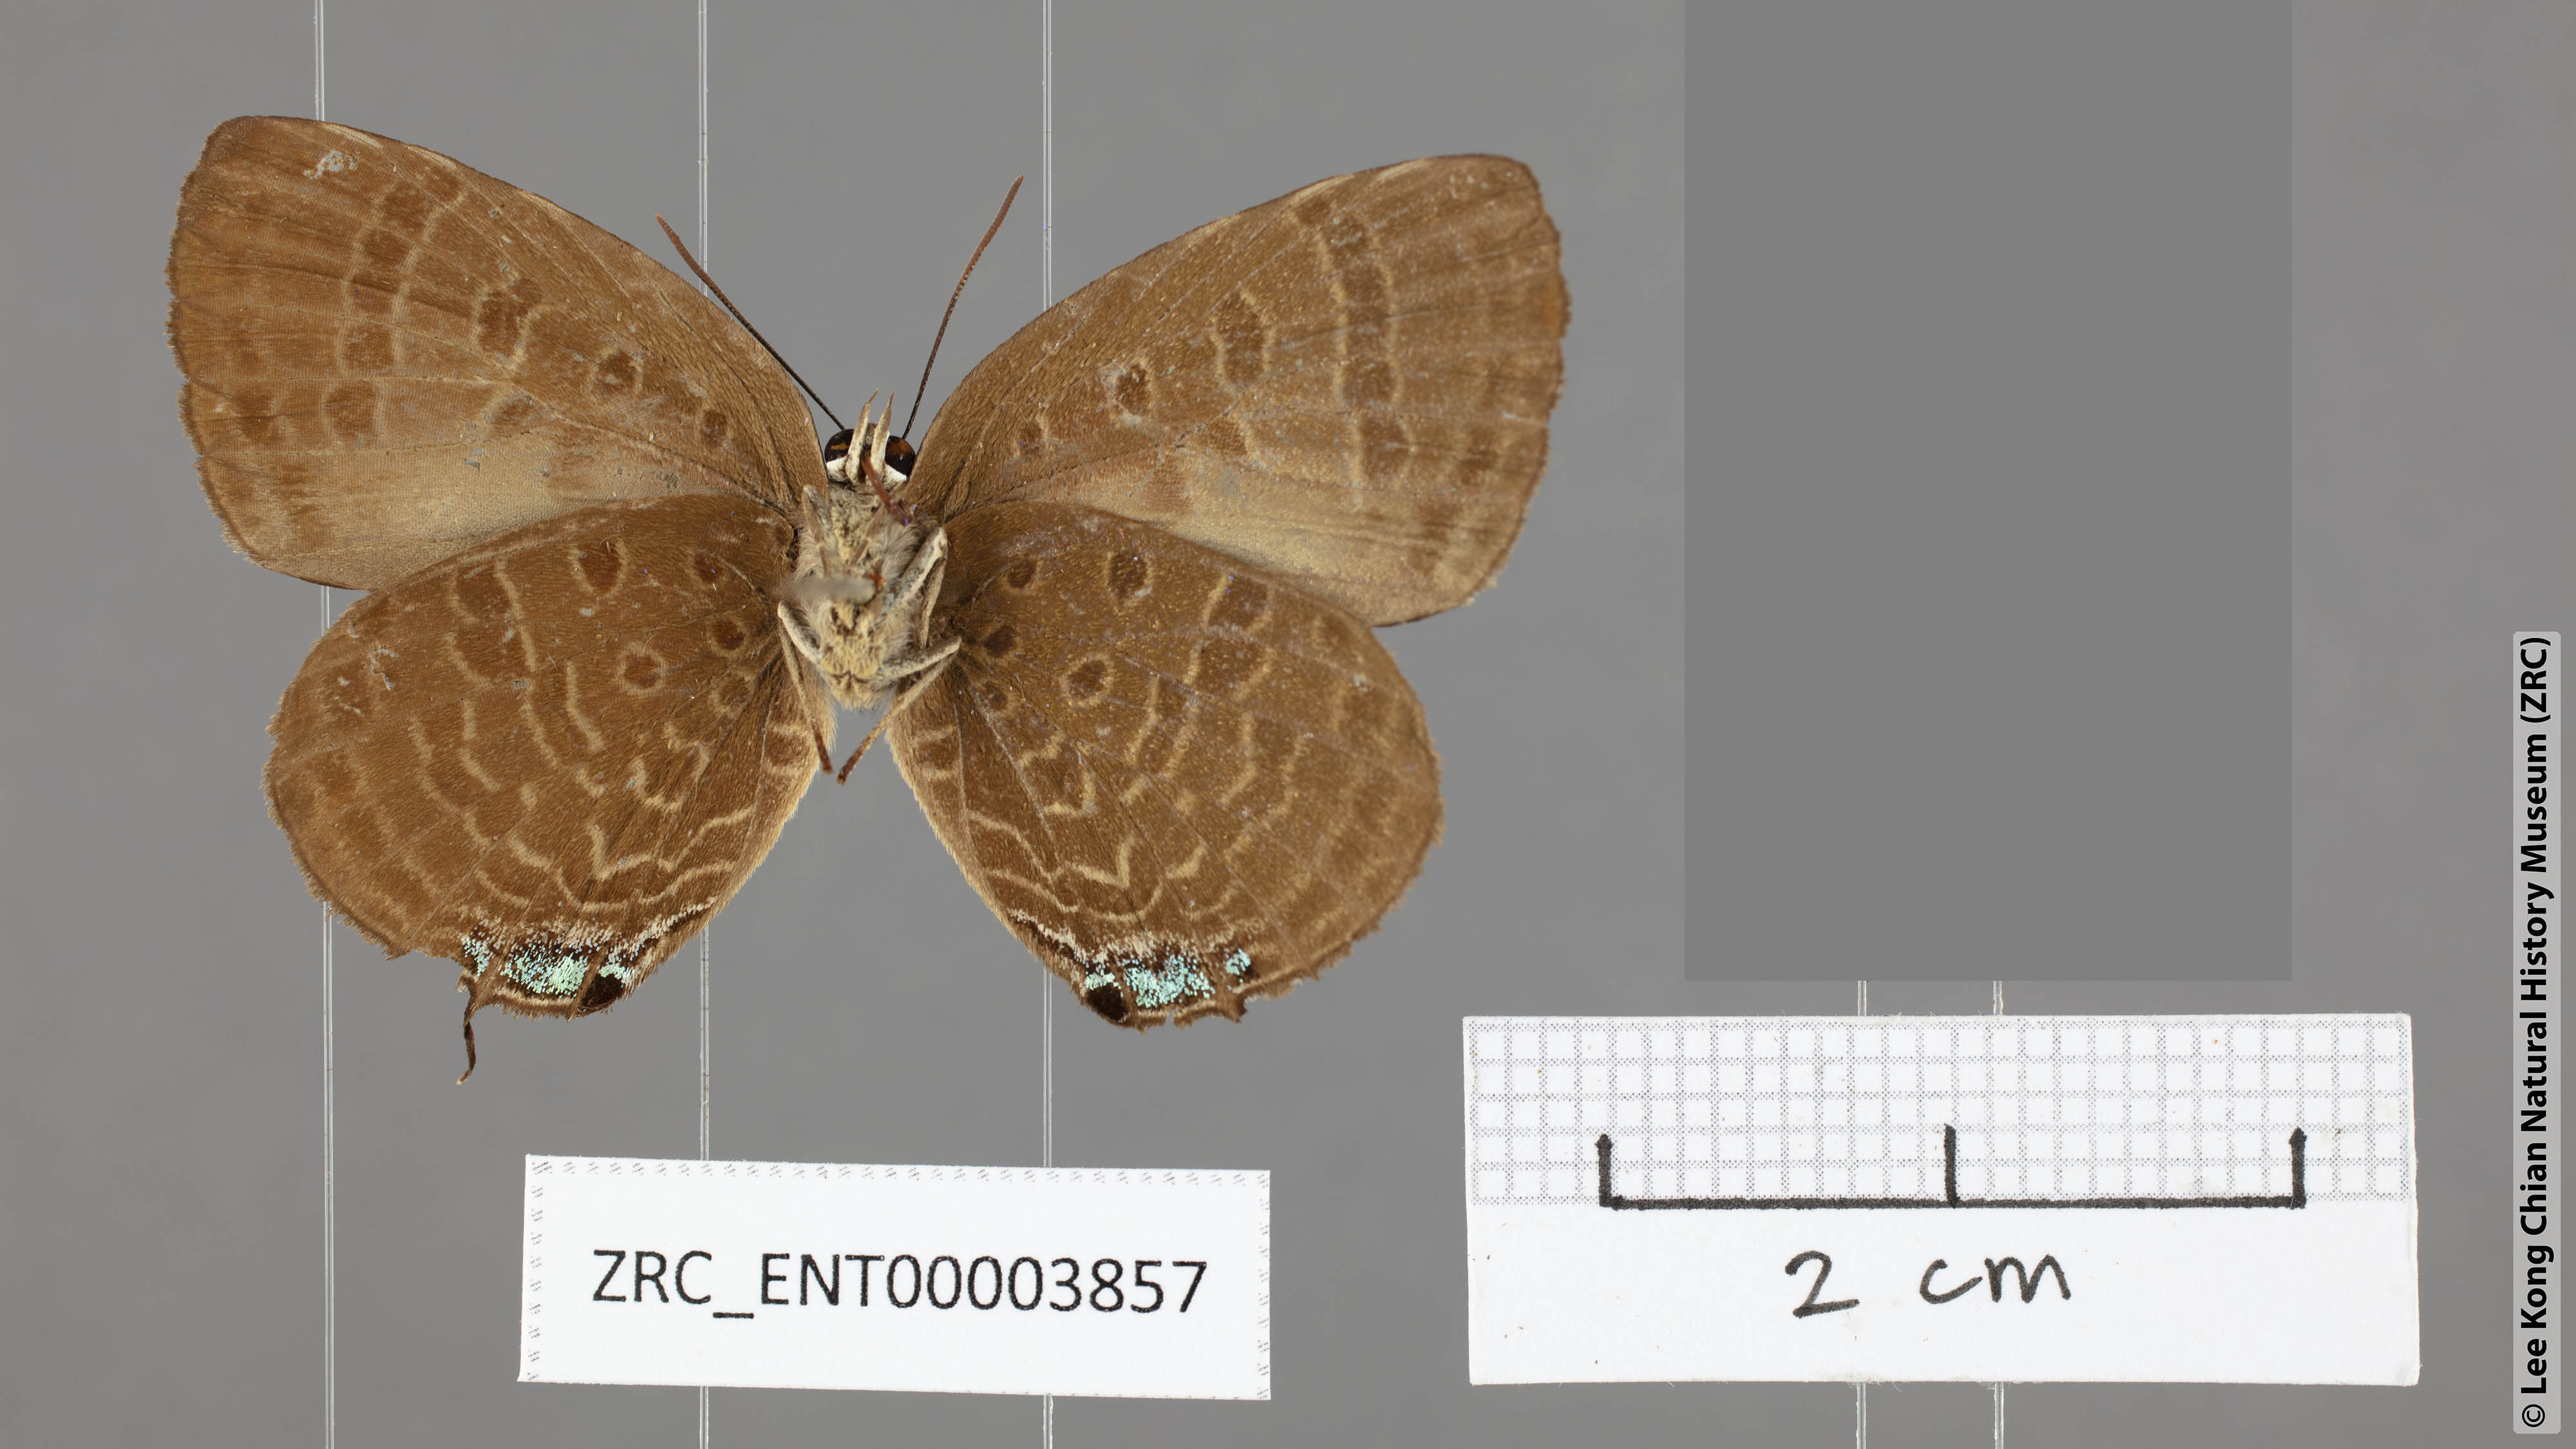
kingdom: Animalia
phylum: Arthropoda
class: Insecta
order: Lepidoptera
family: Lycaenidae
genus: Arhopala
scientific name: Arhopala aroa
